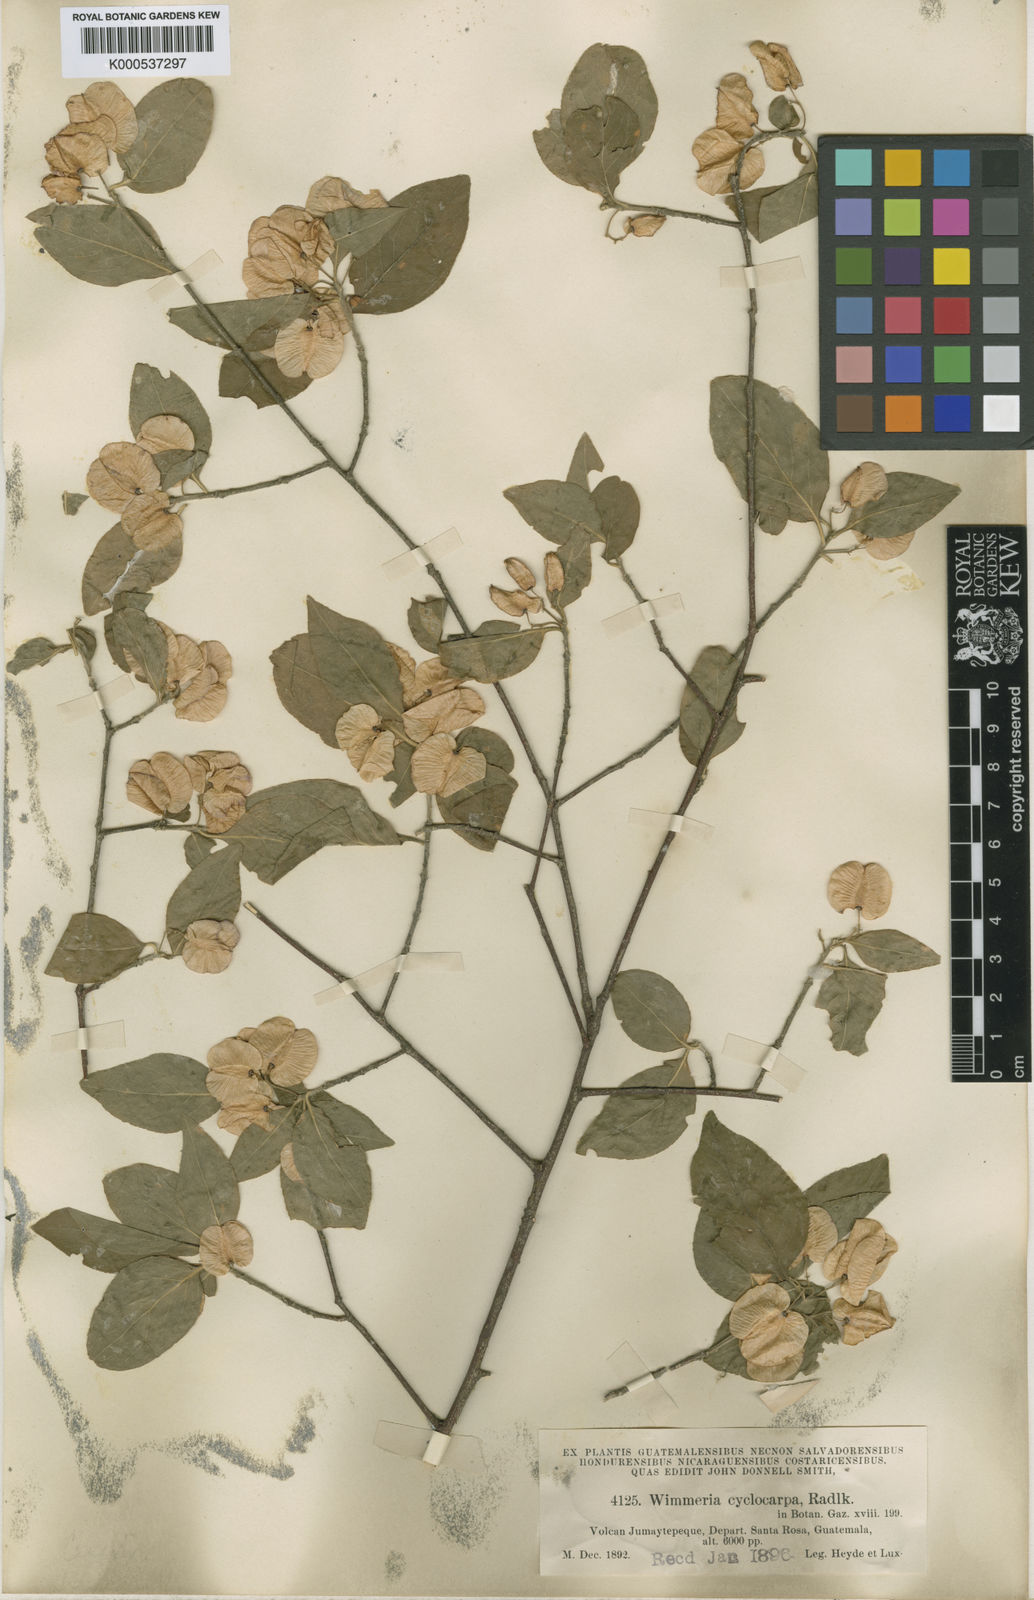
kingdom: Plantae
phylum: Tracheophyta
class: Magnoliopsida
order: Celastrales
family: Celastraceae
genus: Wimmeria
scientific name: Wimmeria cyclocarpa
